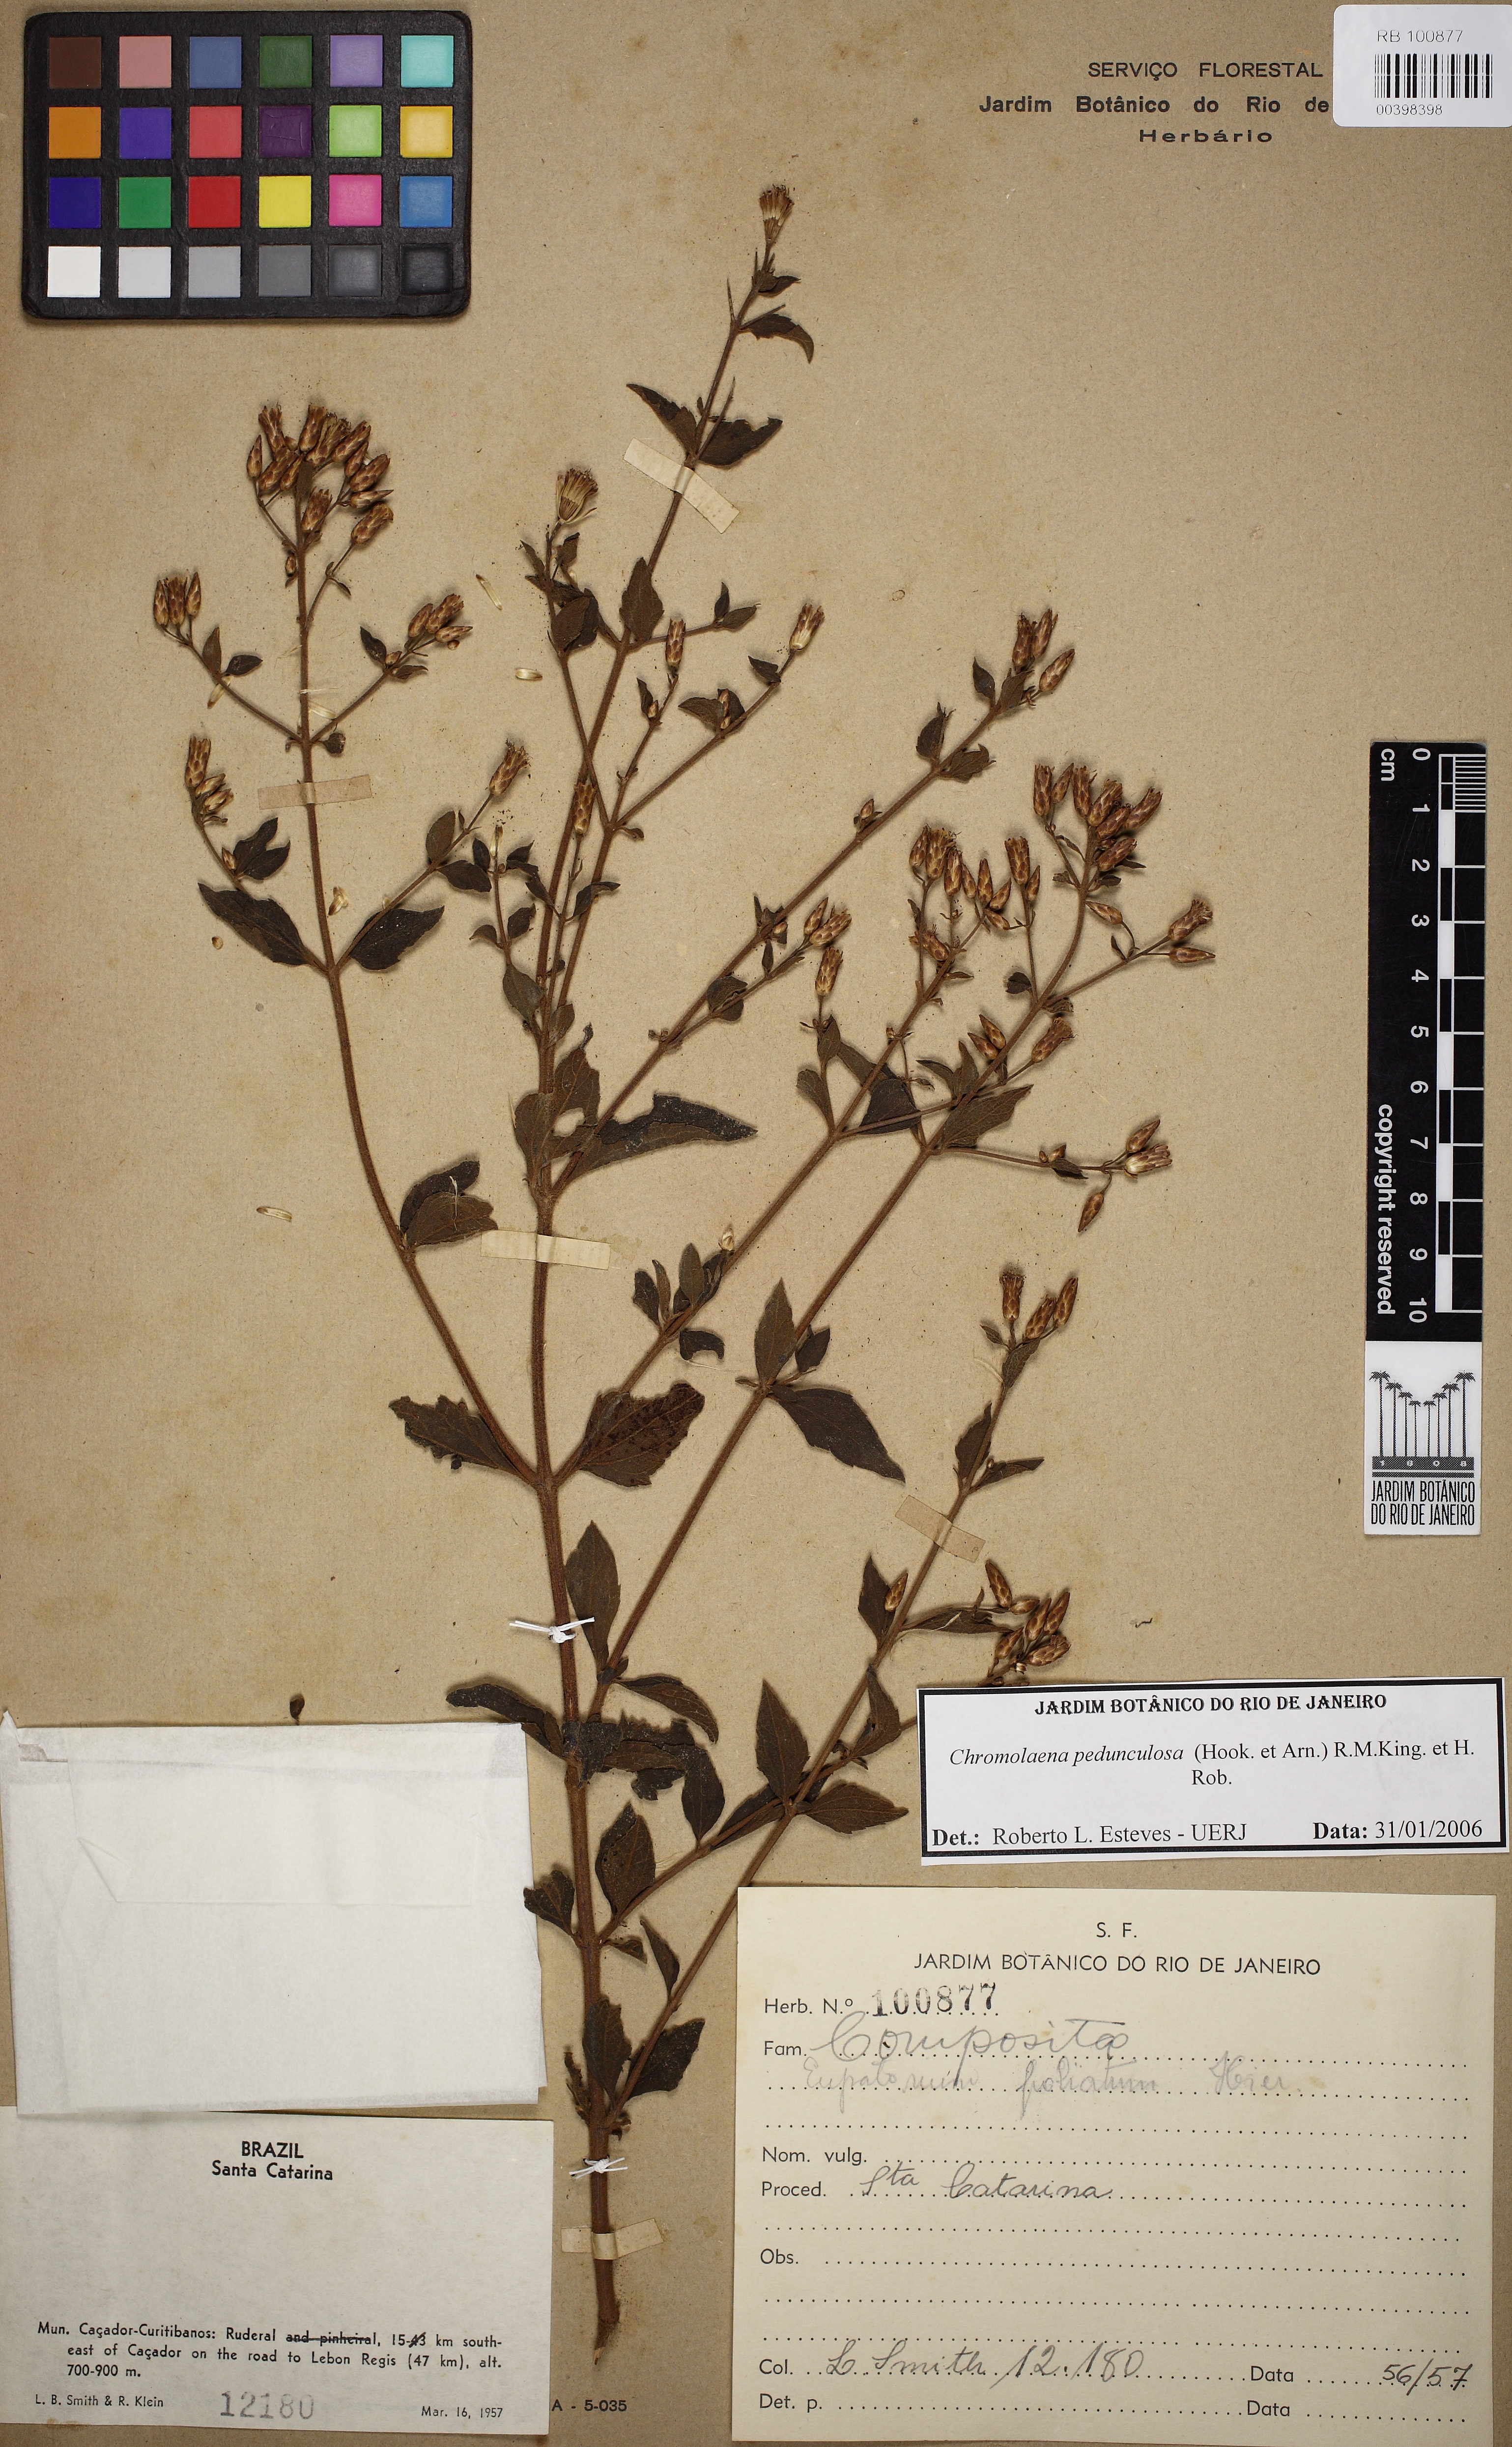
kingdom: Plantae
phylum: Tracheophyta
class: Magnoliopsida
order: Asterales
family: Asteraceae
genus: Chromolaena
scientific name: Chromolaena pedunculosa
